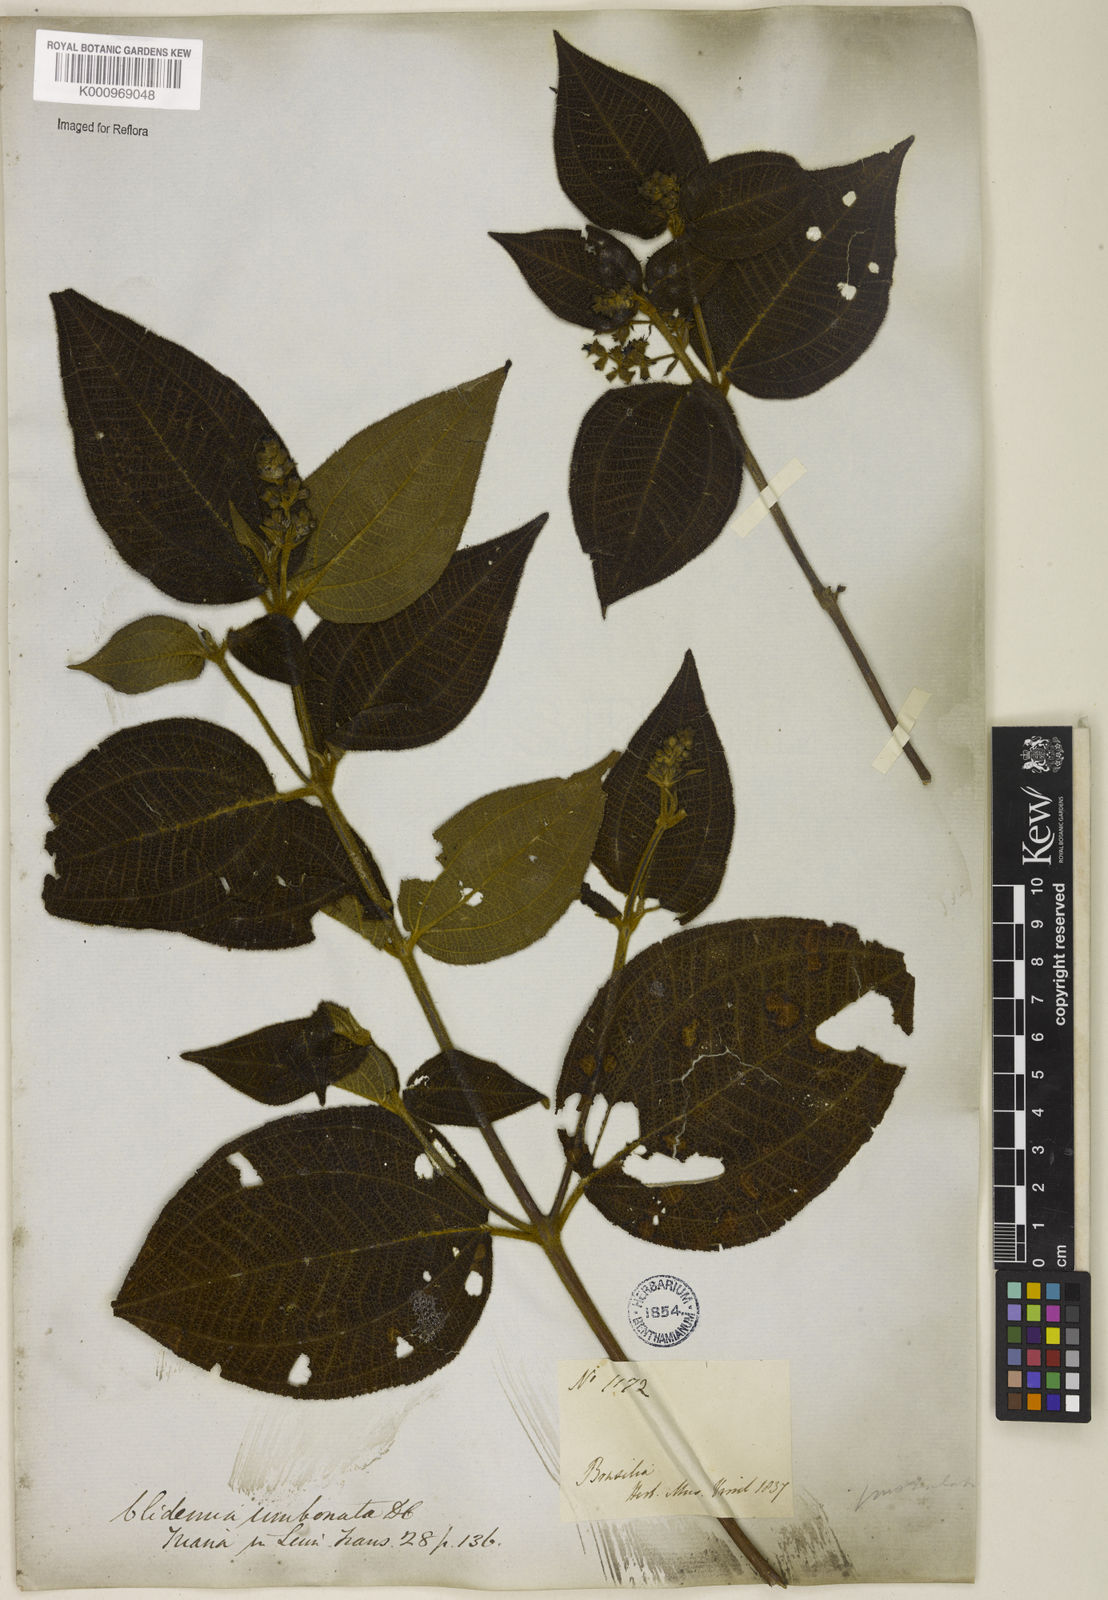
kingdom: Plantae
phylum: Tracheophyta
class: Magnoliopsida
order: Myrtales
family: Melastomataceae
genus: Miconia
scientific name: Miconia strigillosa
